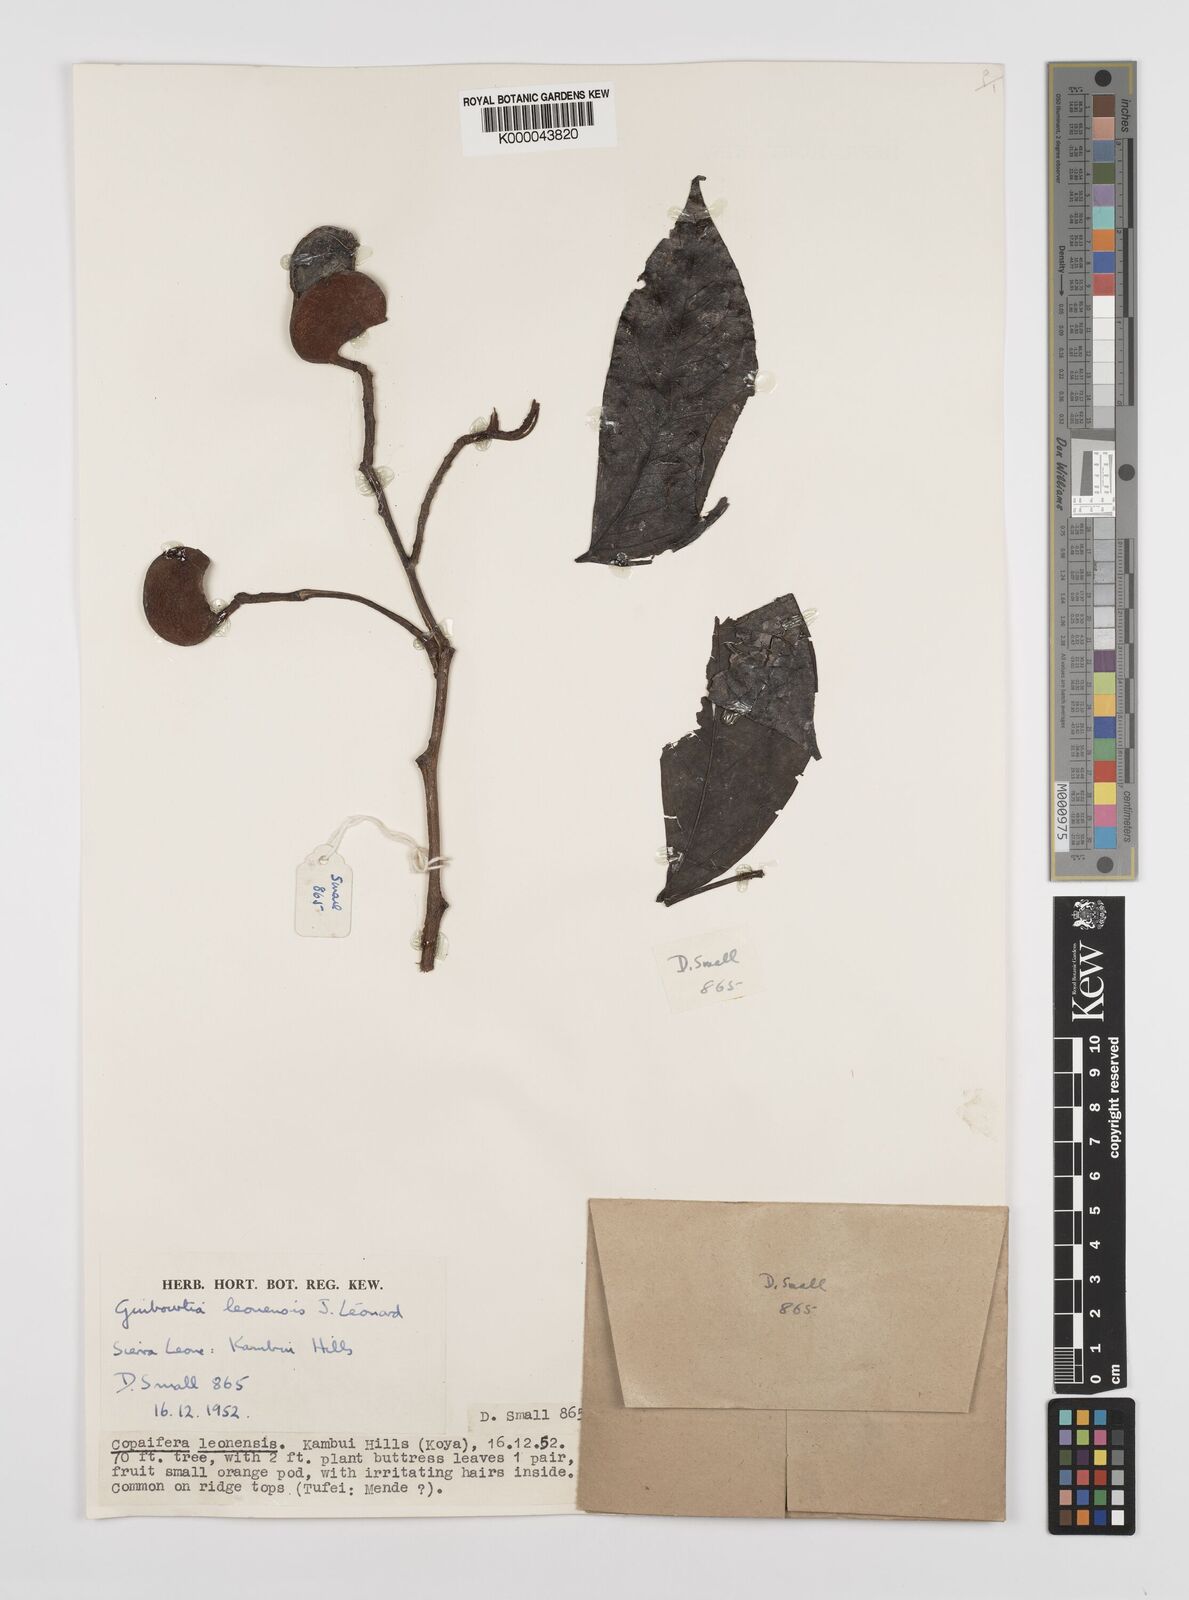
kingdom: Plantae
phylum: Tracheophyta
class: Magnoliopsida
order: Fabales
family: Fabaceae
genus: Guibourtia
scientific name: Guibourtia
